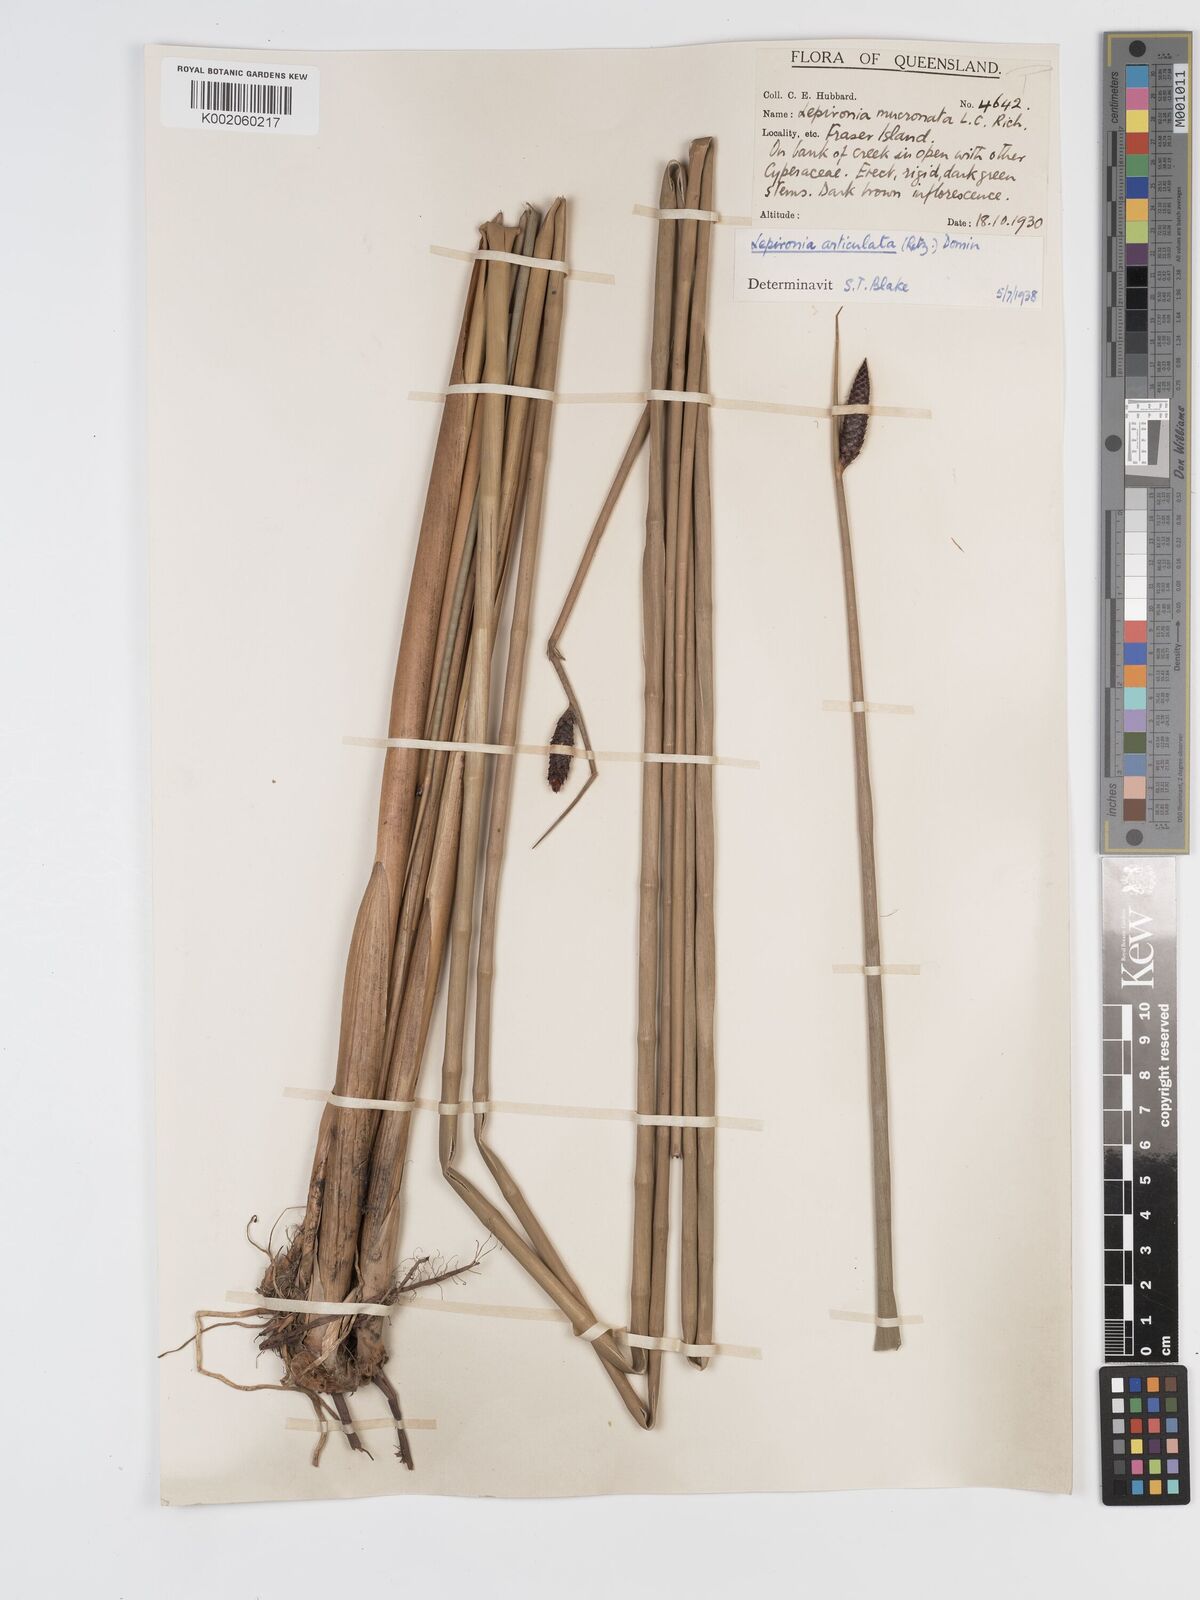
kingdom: Plantae
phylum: Tracheophyta
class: Liliopsida
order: Poales
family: Cyperaceae
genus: Lepironia
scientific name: Lepironia articulata
